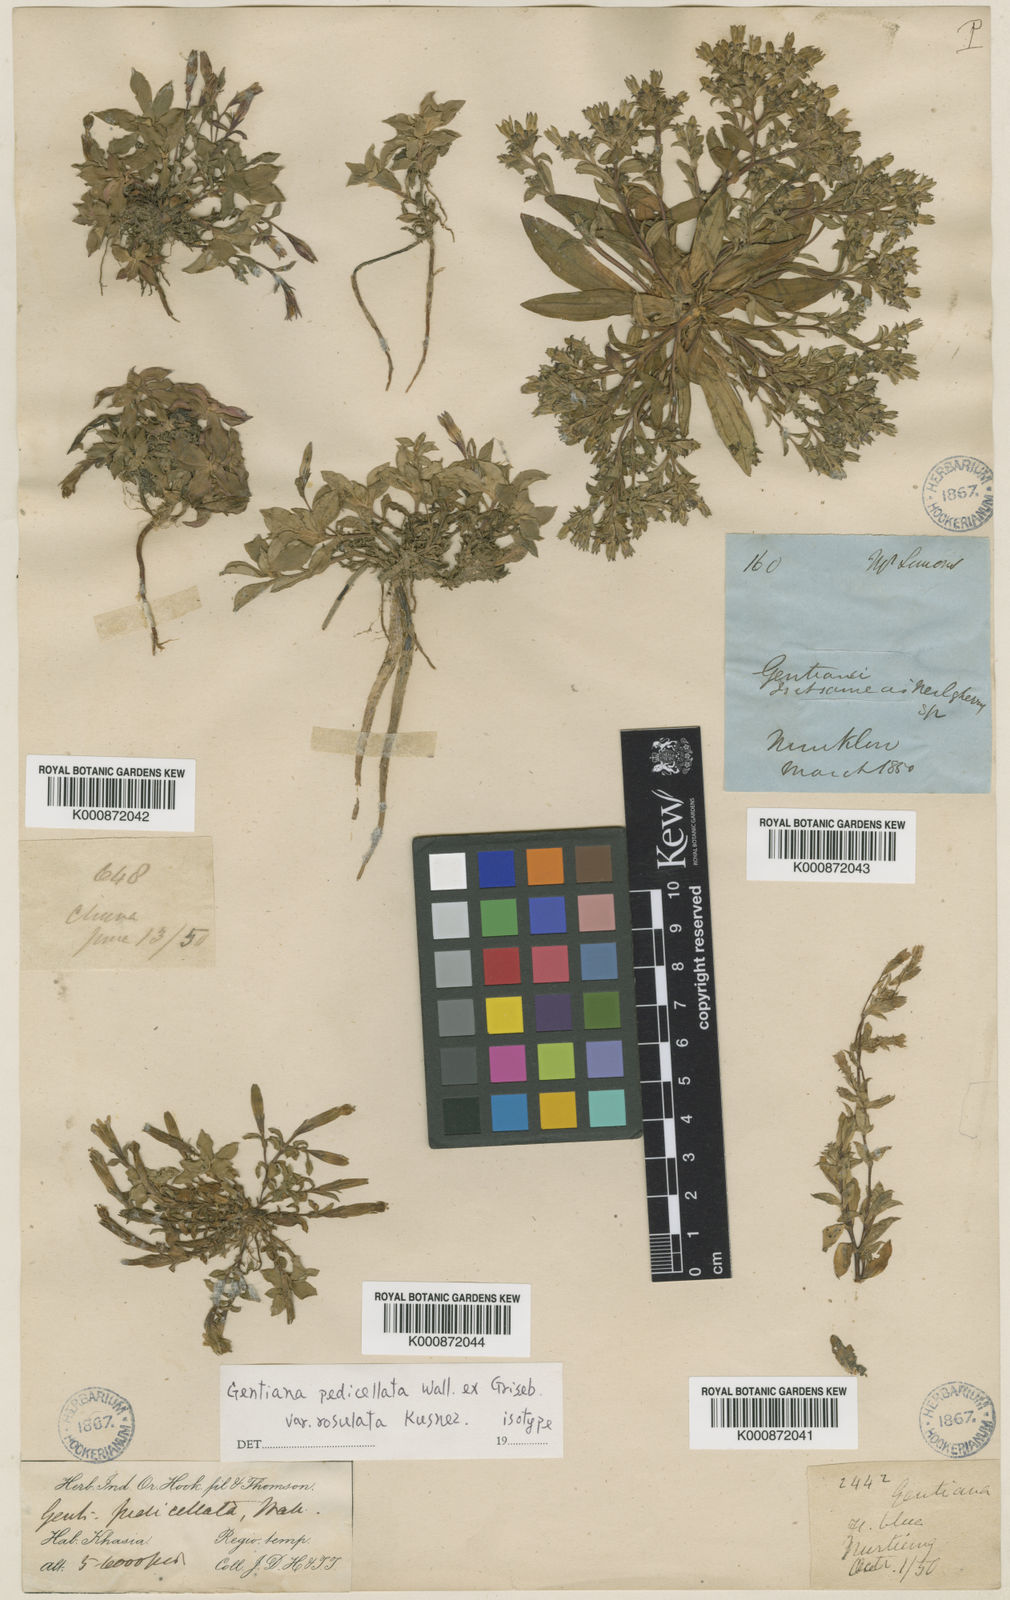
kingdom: Plantae
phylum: Tracheophyta
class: Magnoliopsida
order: Gentianales
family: Gentianaceae
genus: Gentiana
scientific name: Gentiana loureiroi
